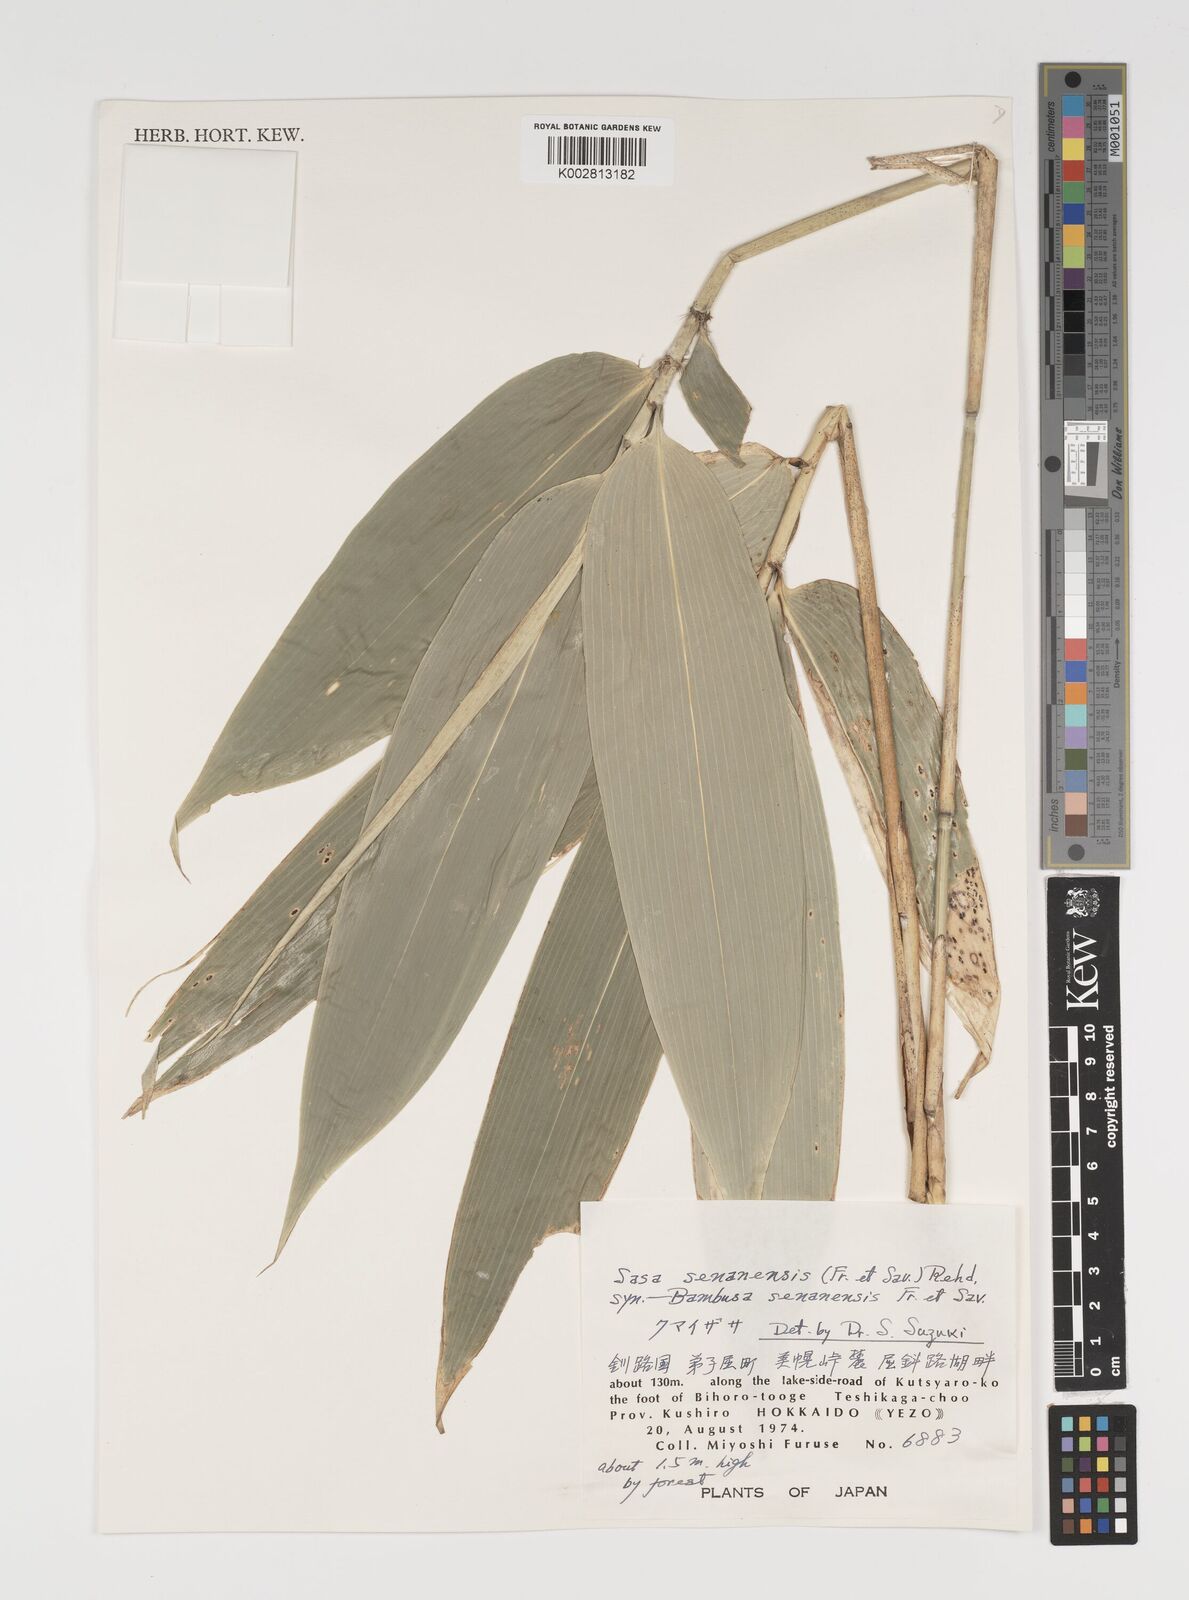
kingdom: Plantae
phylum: Tracheophyta
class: Liliopsida
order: Poales
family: Poaceae
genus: Sasa
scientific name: Sasa senanensis
